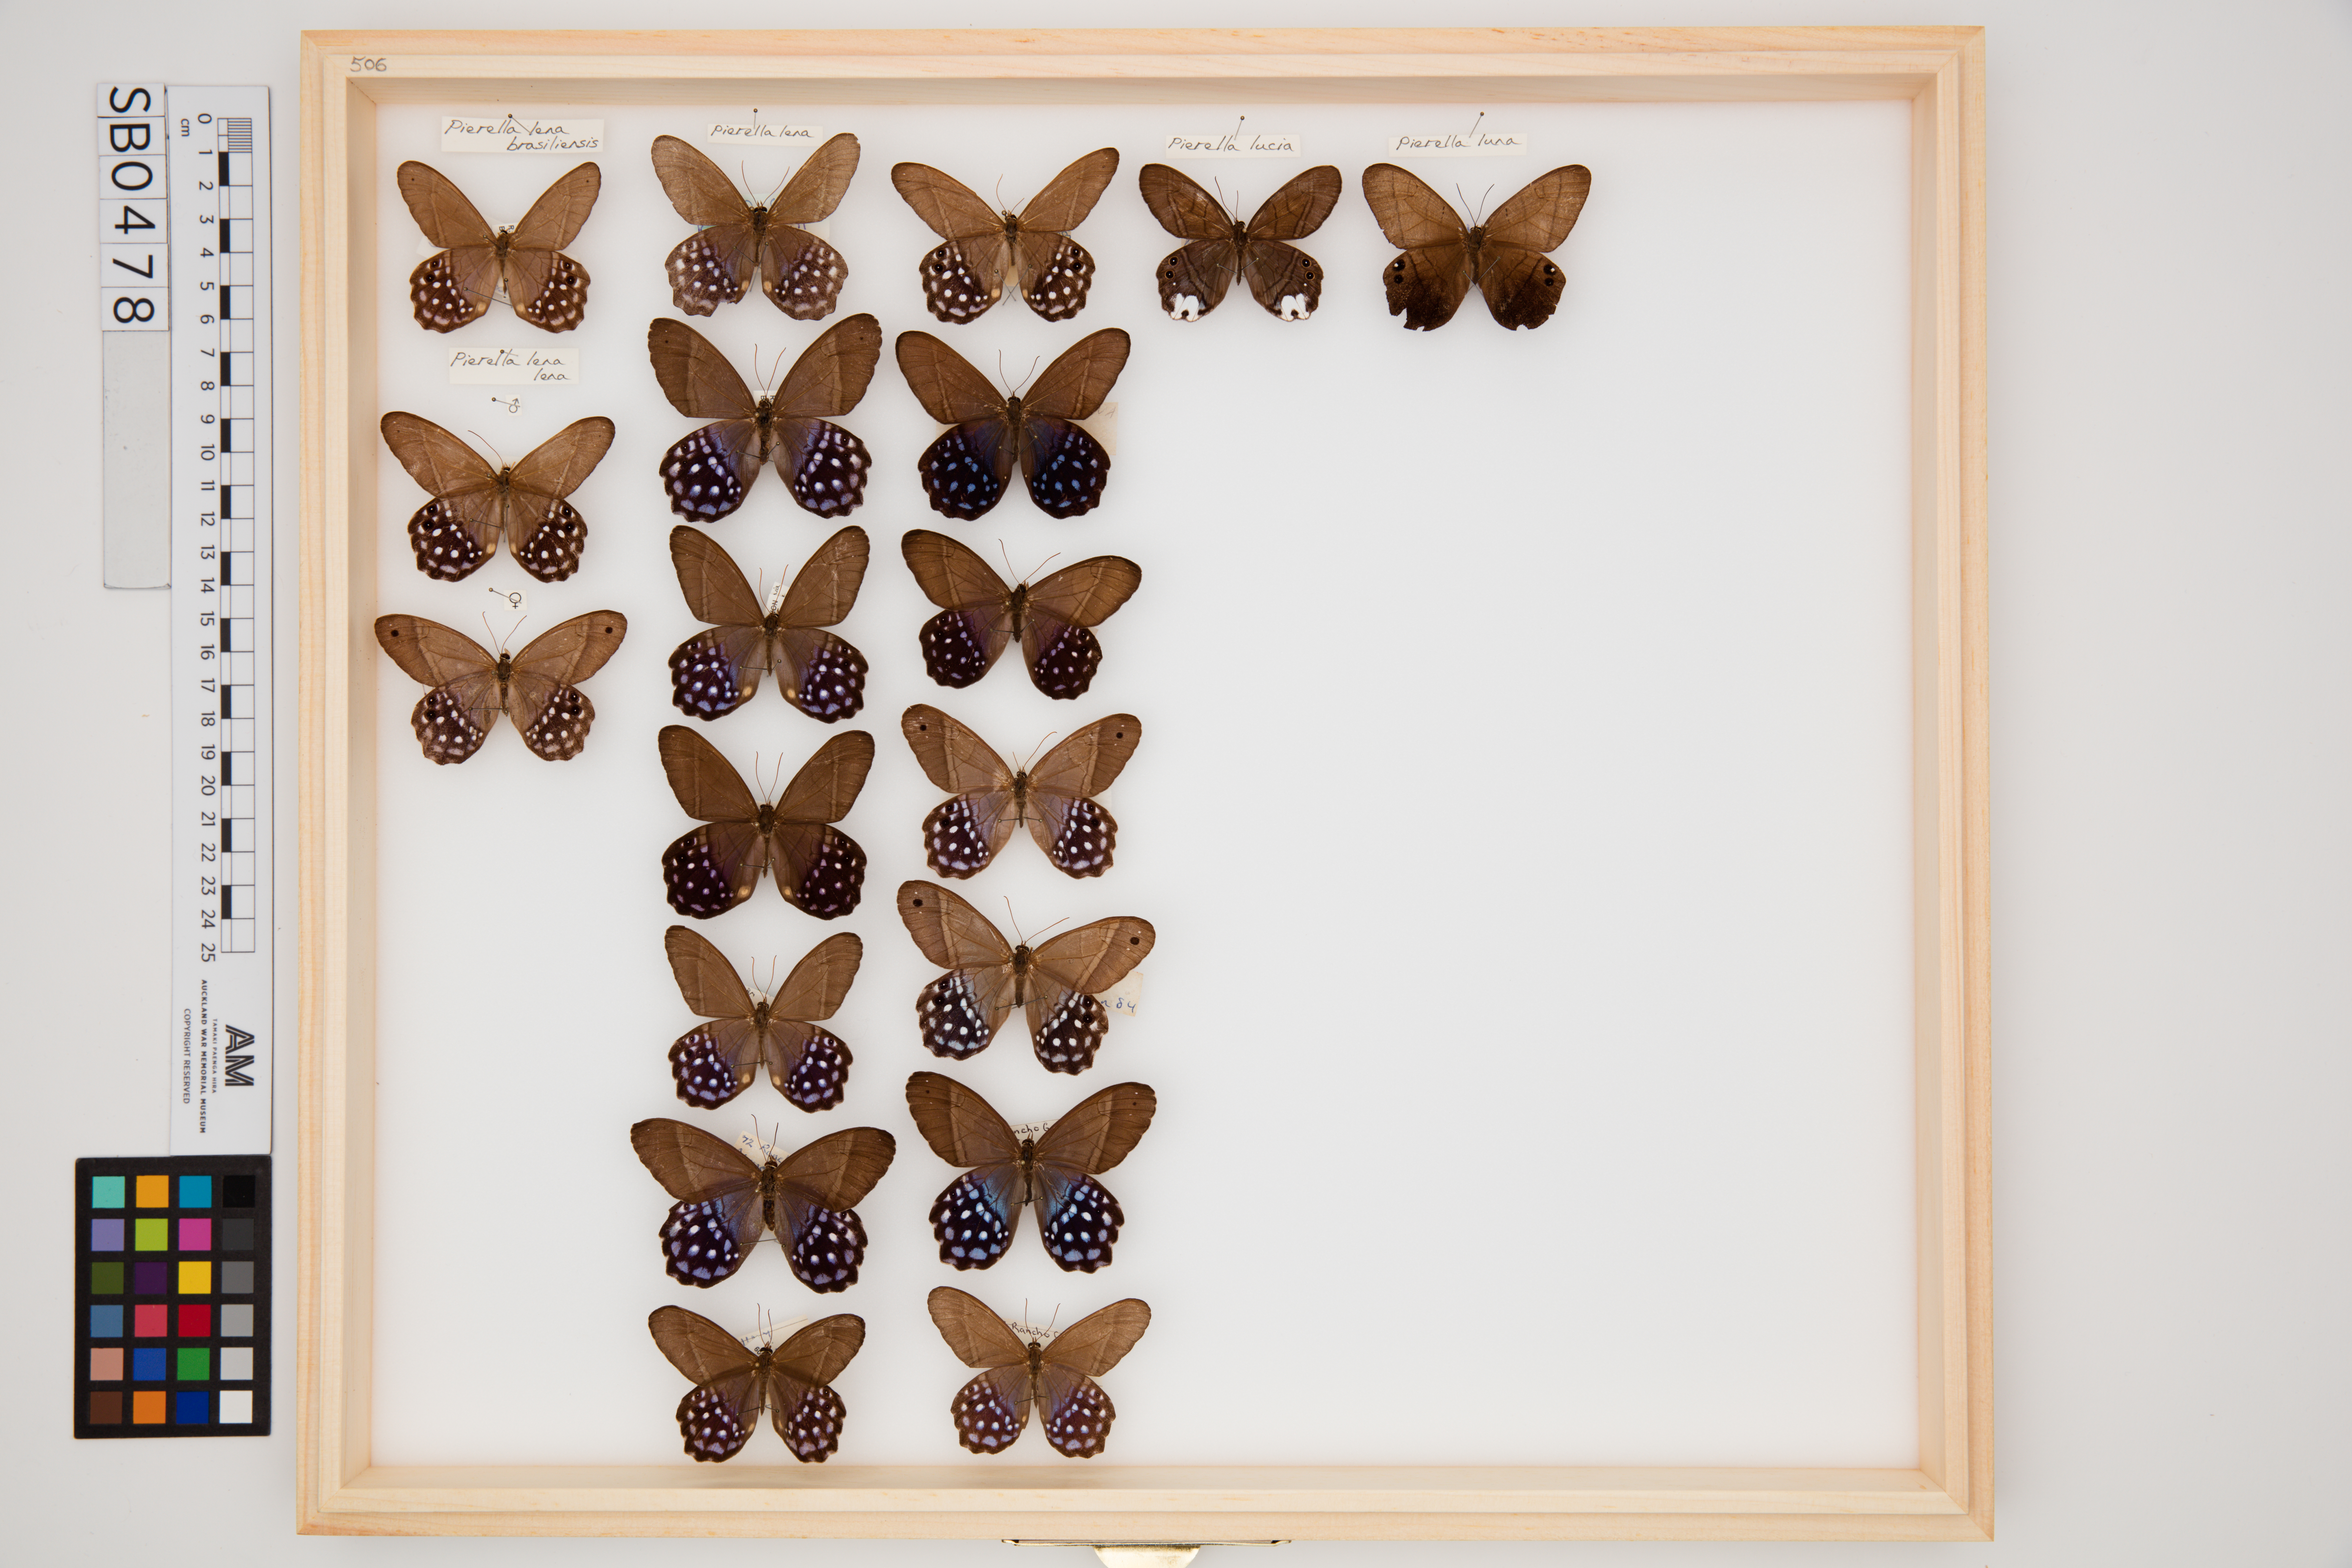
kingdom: Animalia
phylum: Arthropoda
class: Insecta
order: Lepidoptera
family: Nymphalidae
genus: Pierella
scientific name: Pierella lena
